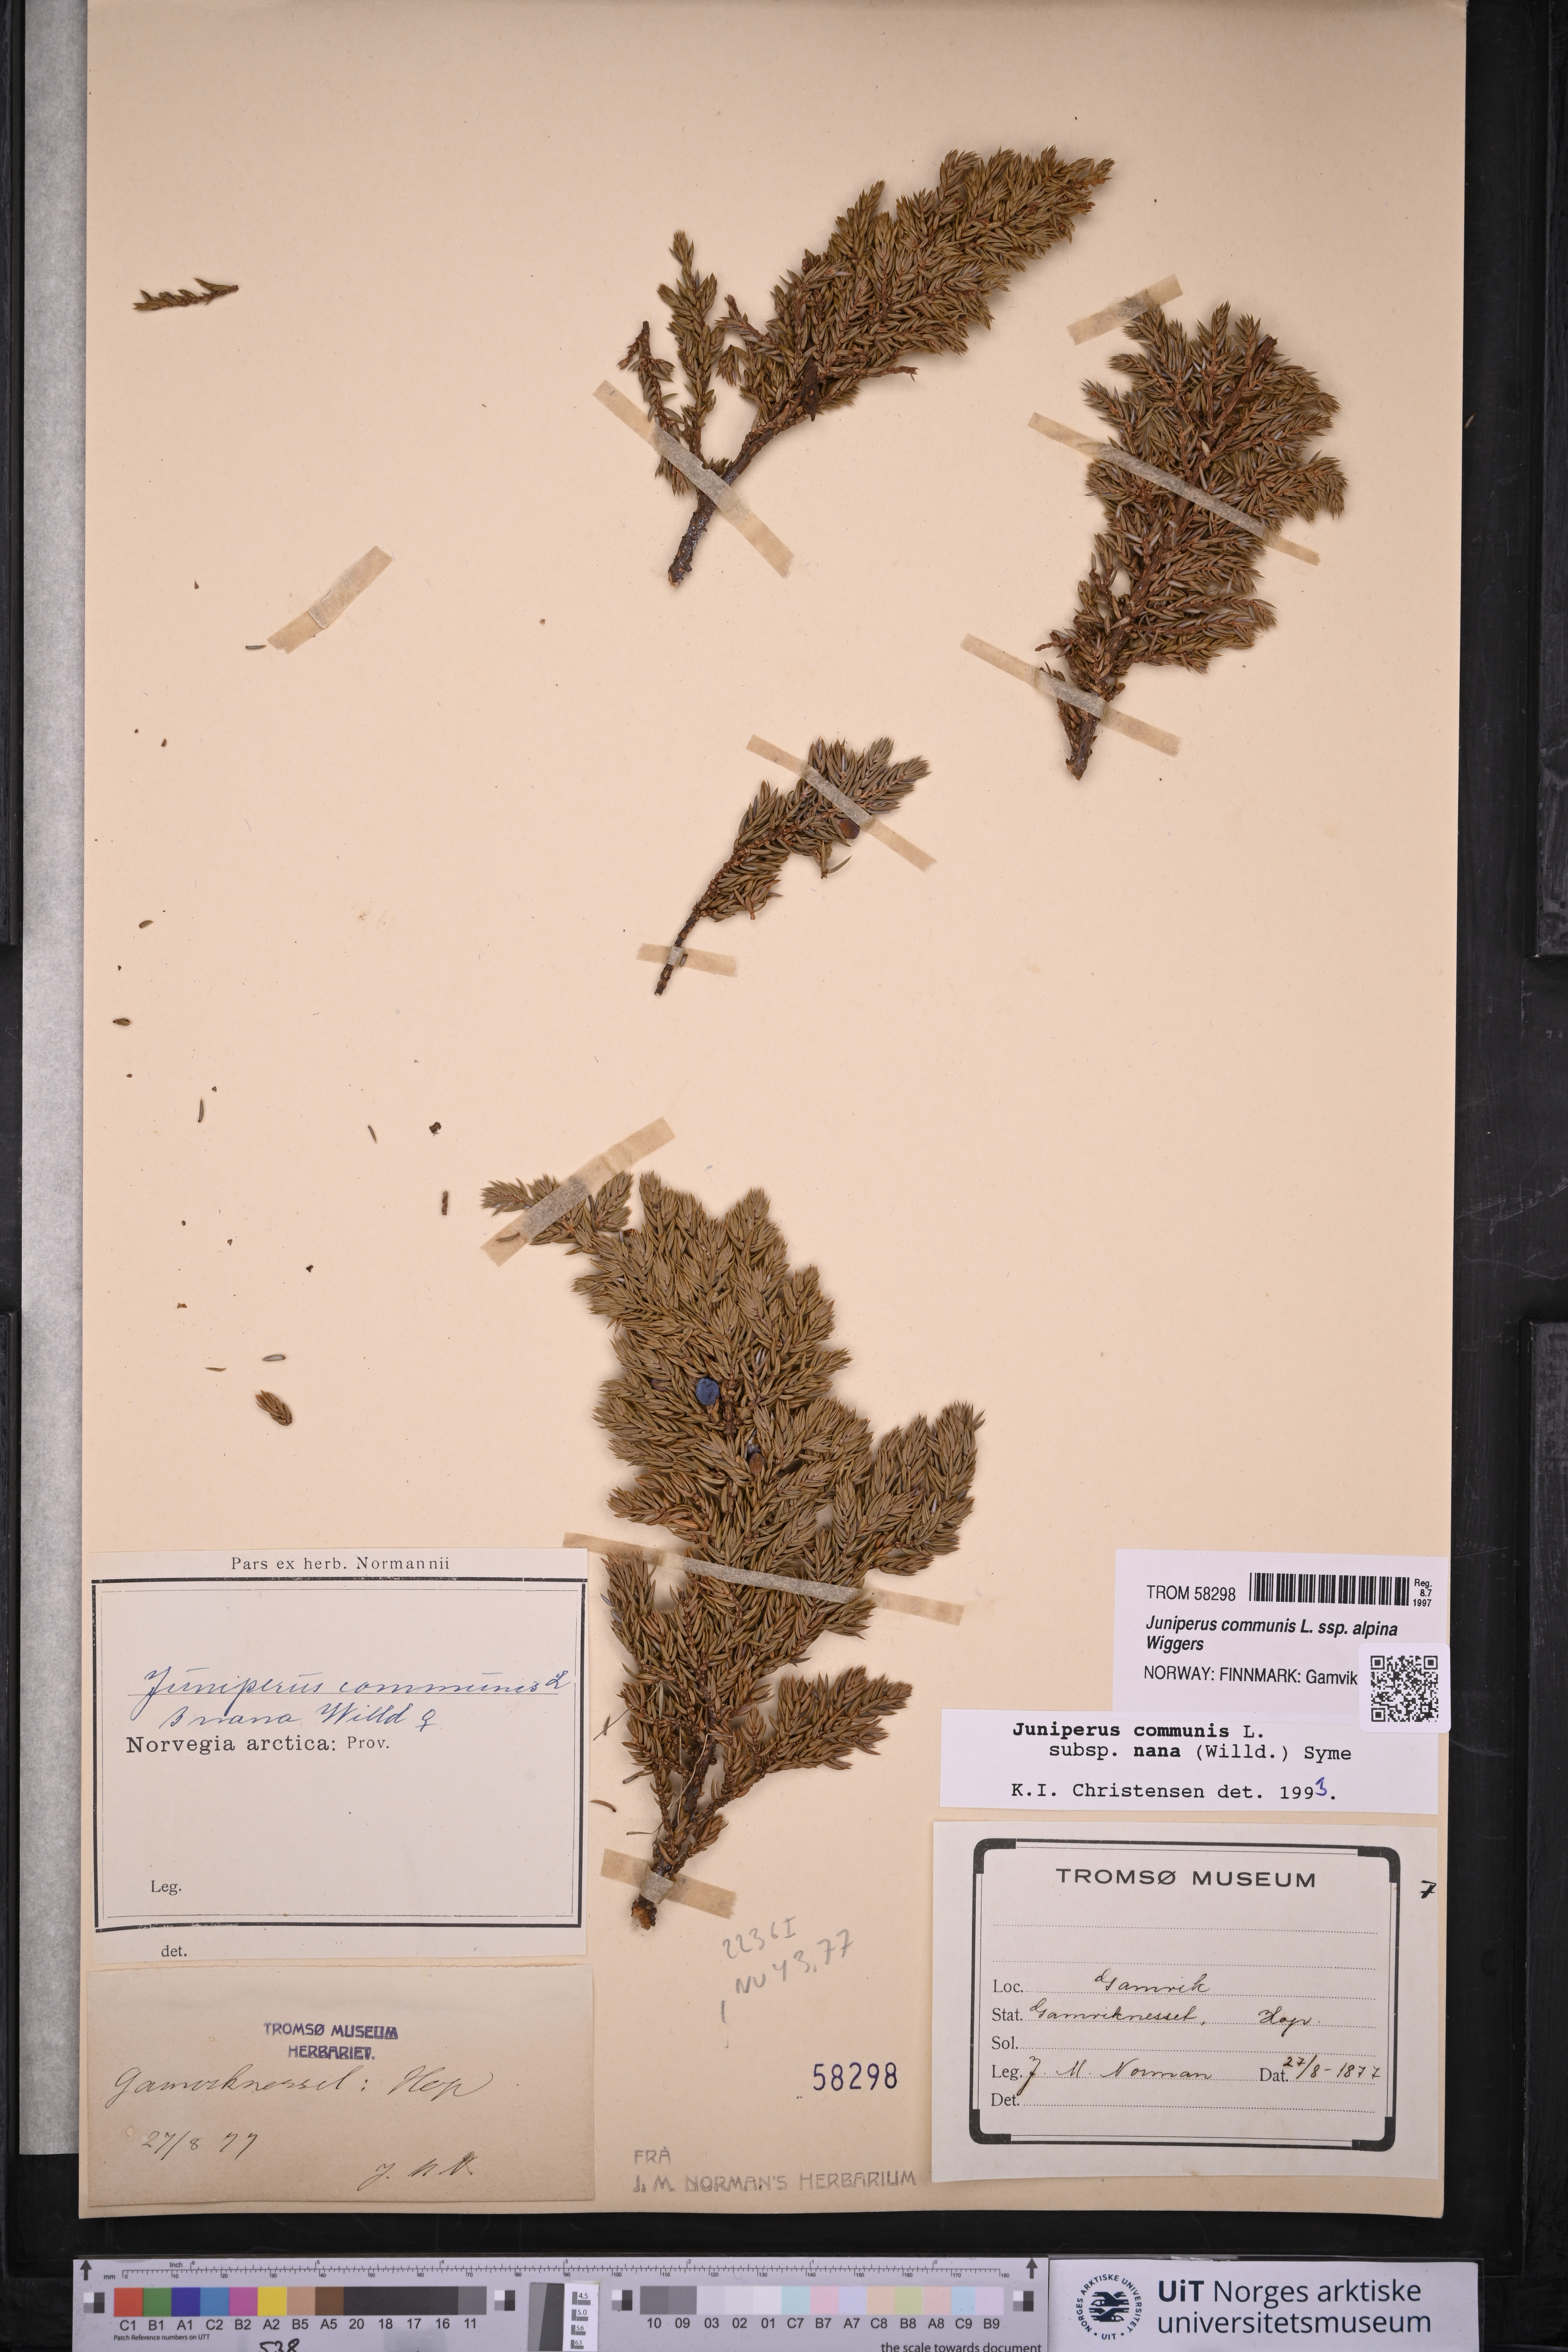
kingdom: Plantae
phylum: Tracheophyta
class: Pinopsida
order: Pinales
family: Cupressaceae
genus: Juniperus
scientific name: Juniperus communis
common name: Common juniper
